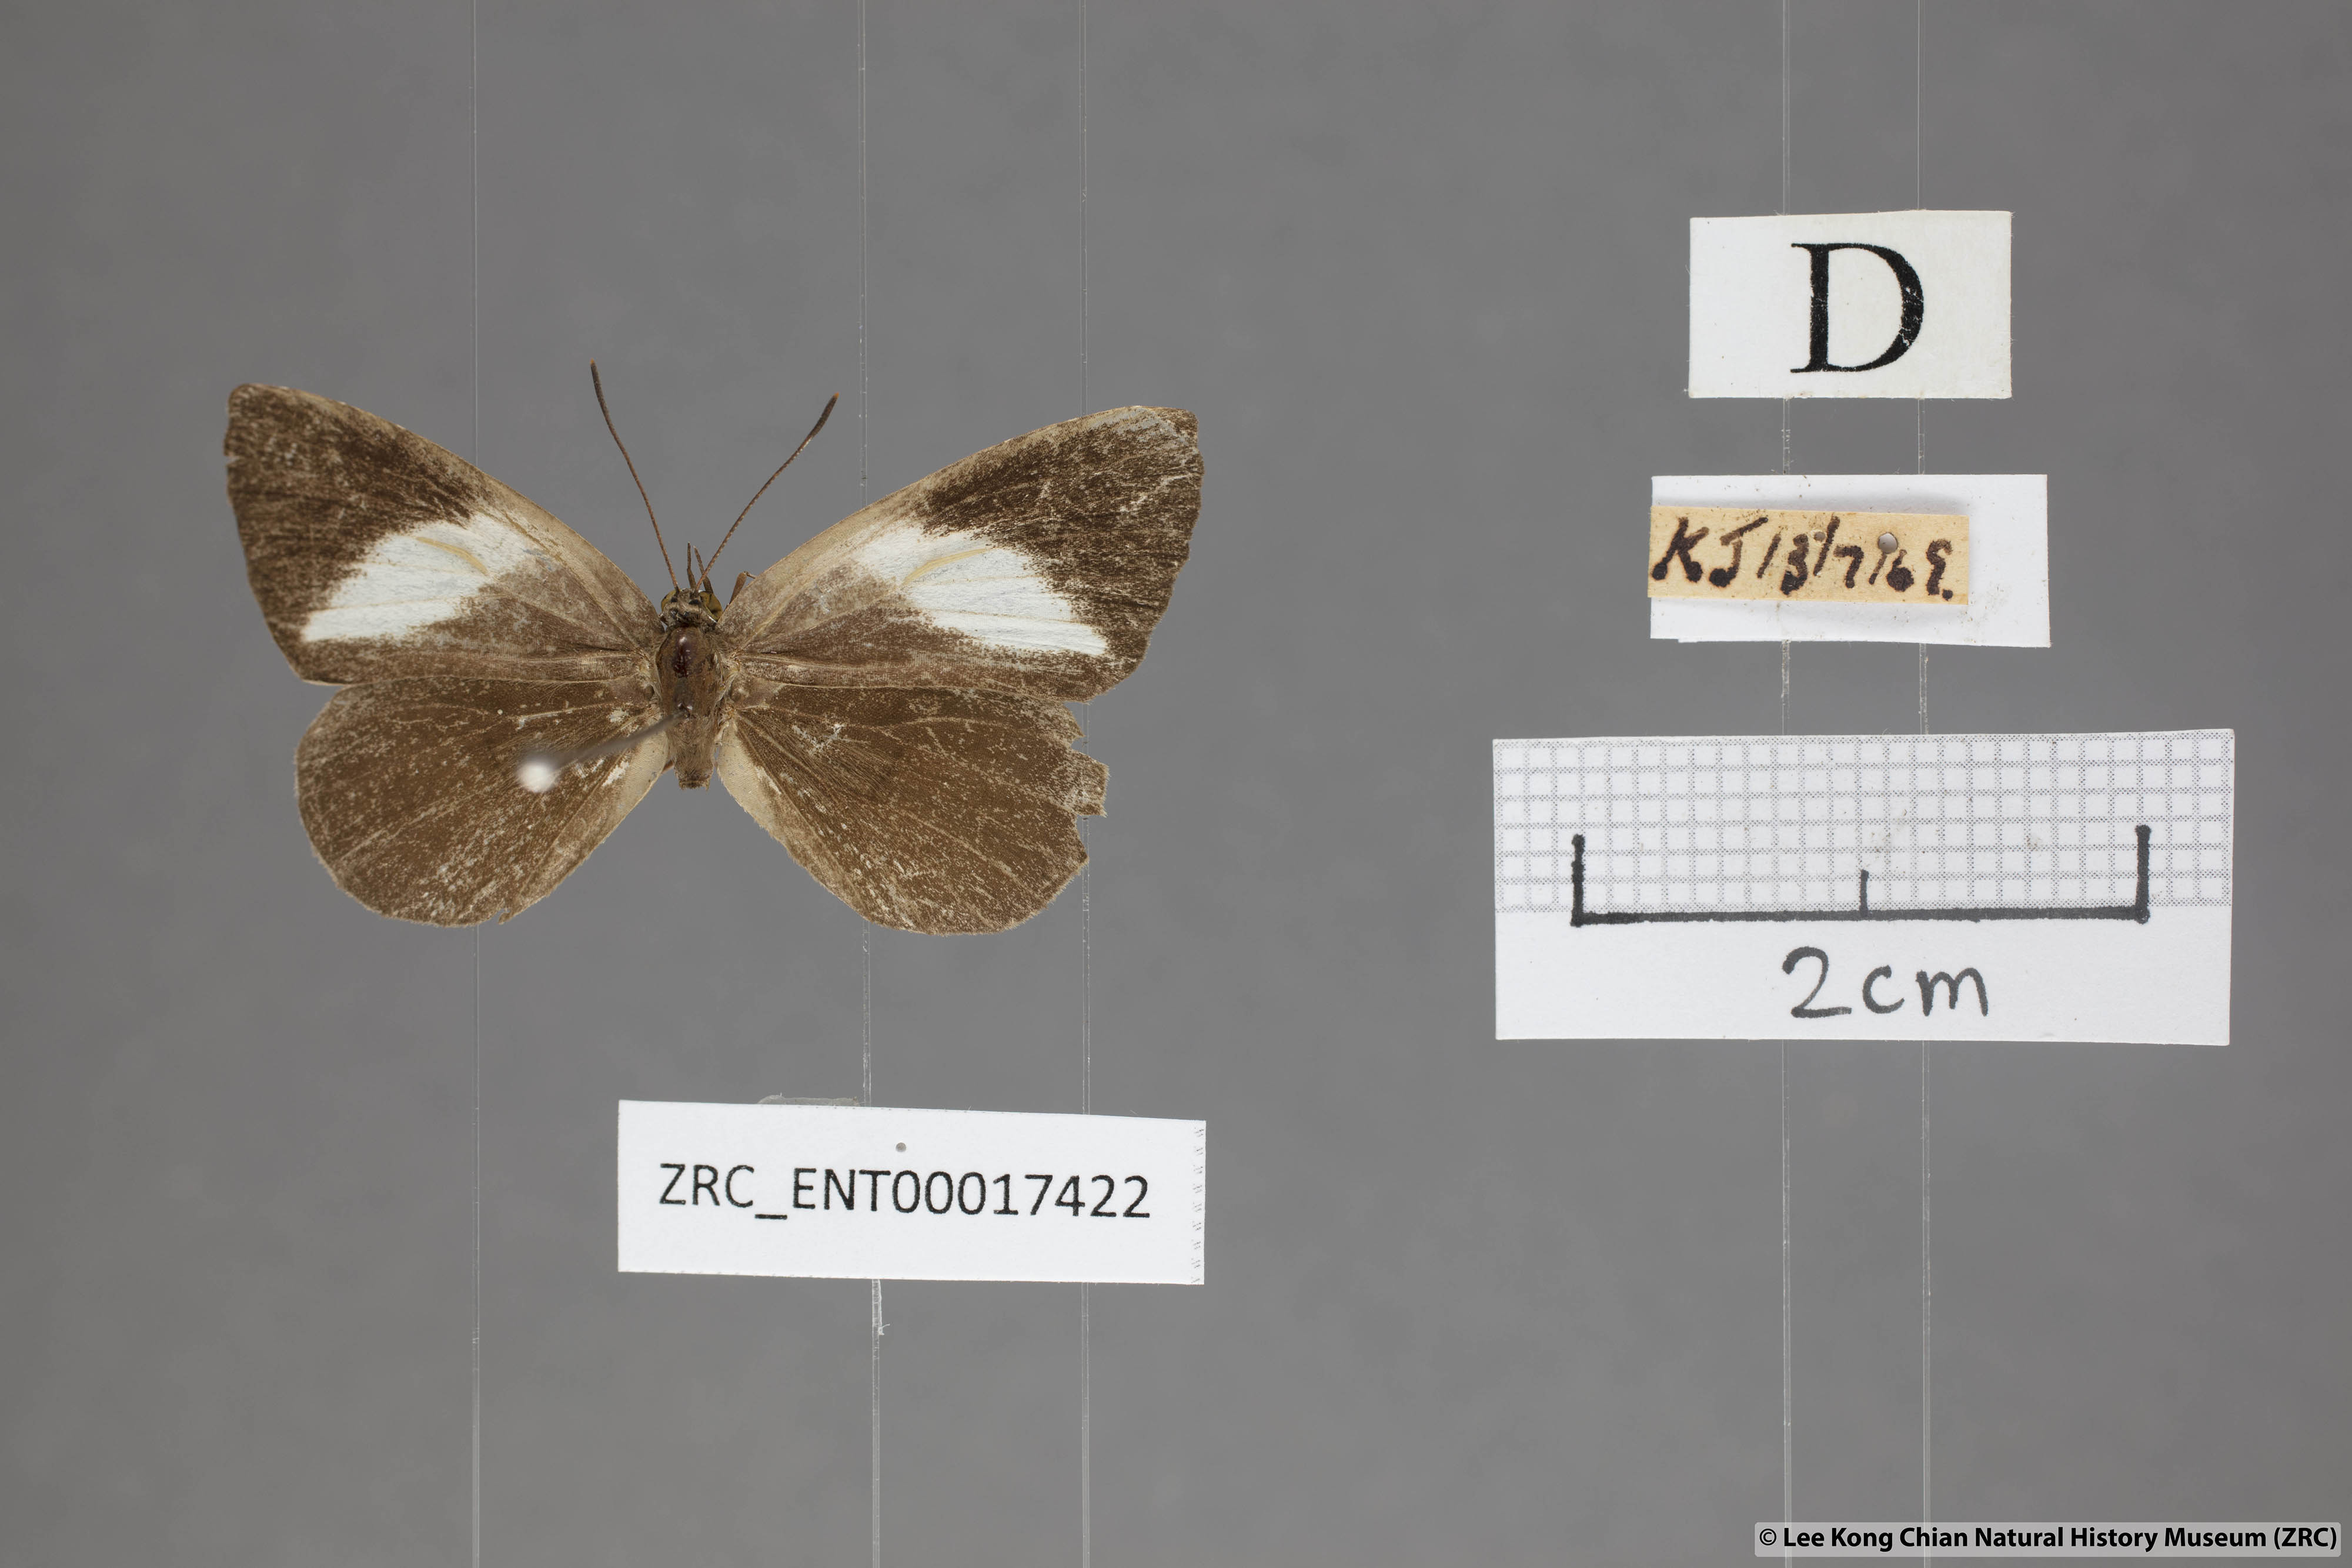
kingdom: Animalia
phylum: Arthropoda
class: Insecta
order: Lepidoptera
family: Lycaenidae
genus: Miletus
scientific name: Miletus biggsii
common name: Bigg's brownie
